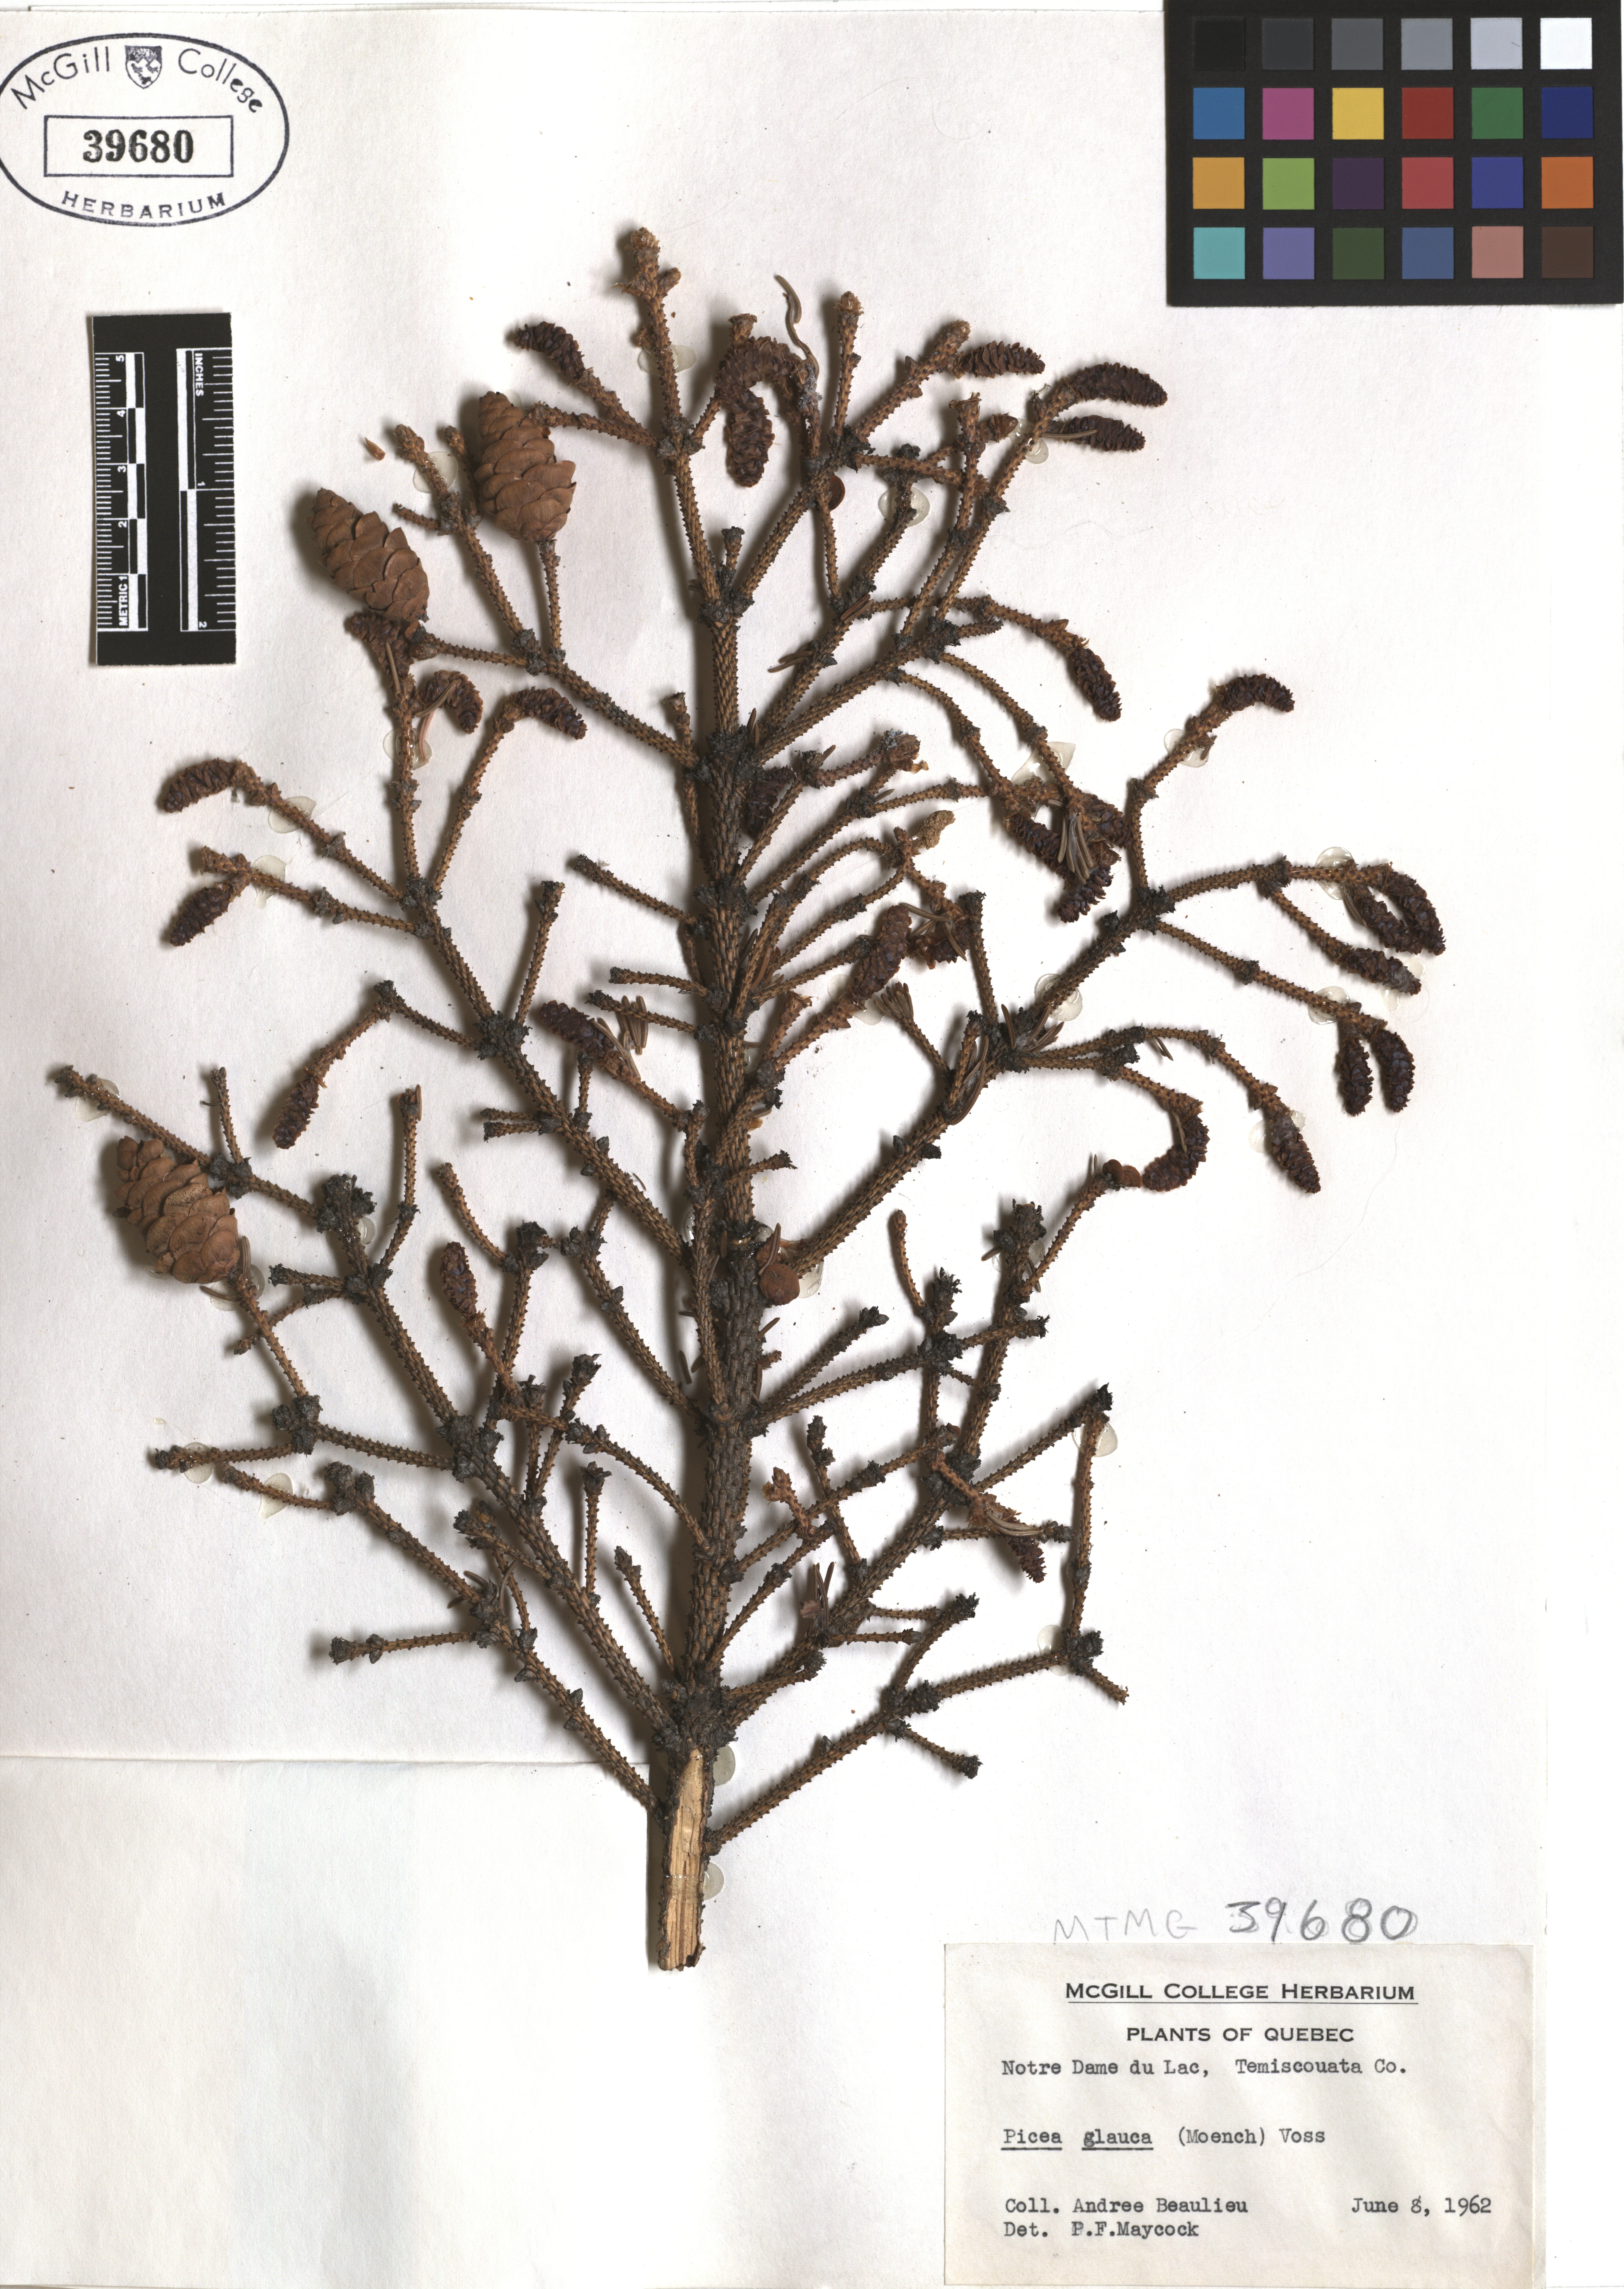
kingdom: Plantae
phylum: Tracheophyta
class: Pinopsida
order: Pinales
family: Pinaceae
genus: Picea
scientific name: Picea glauca
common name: White spruce
